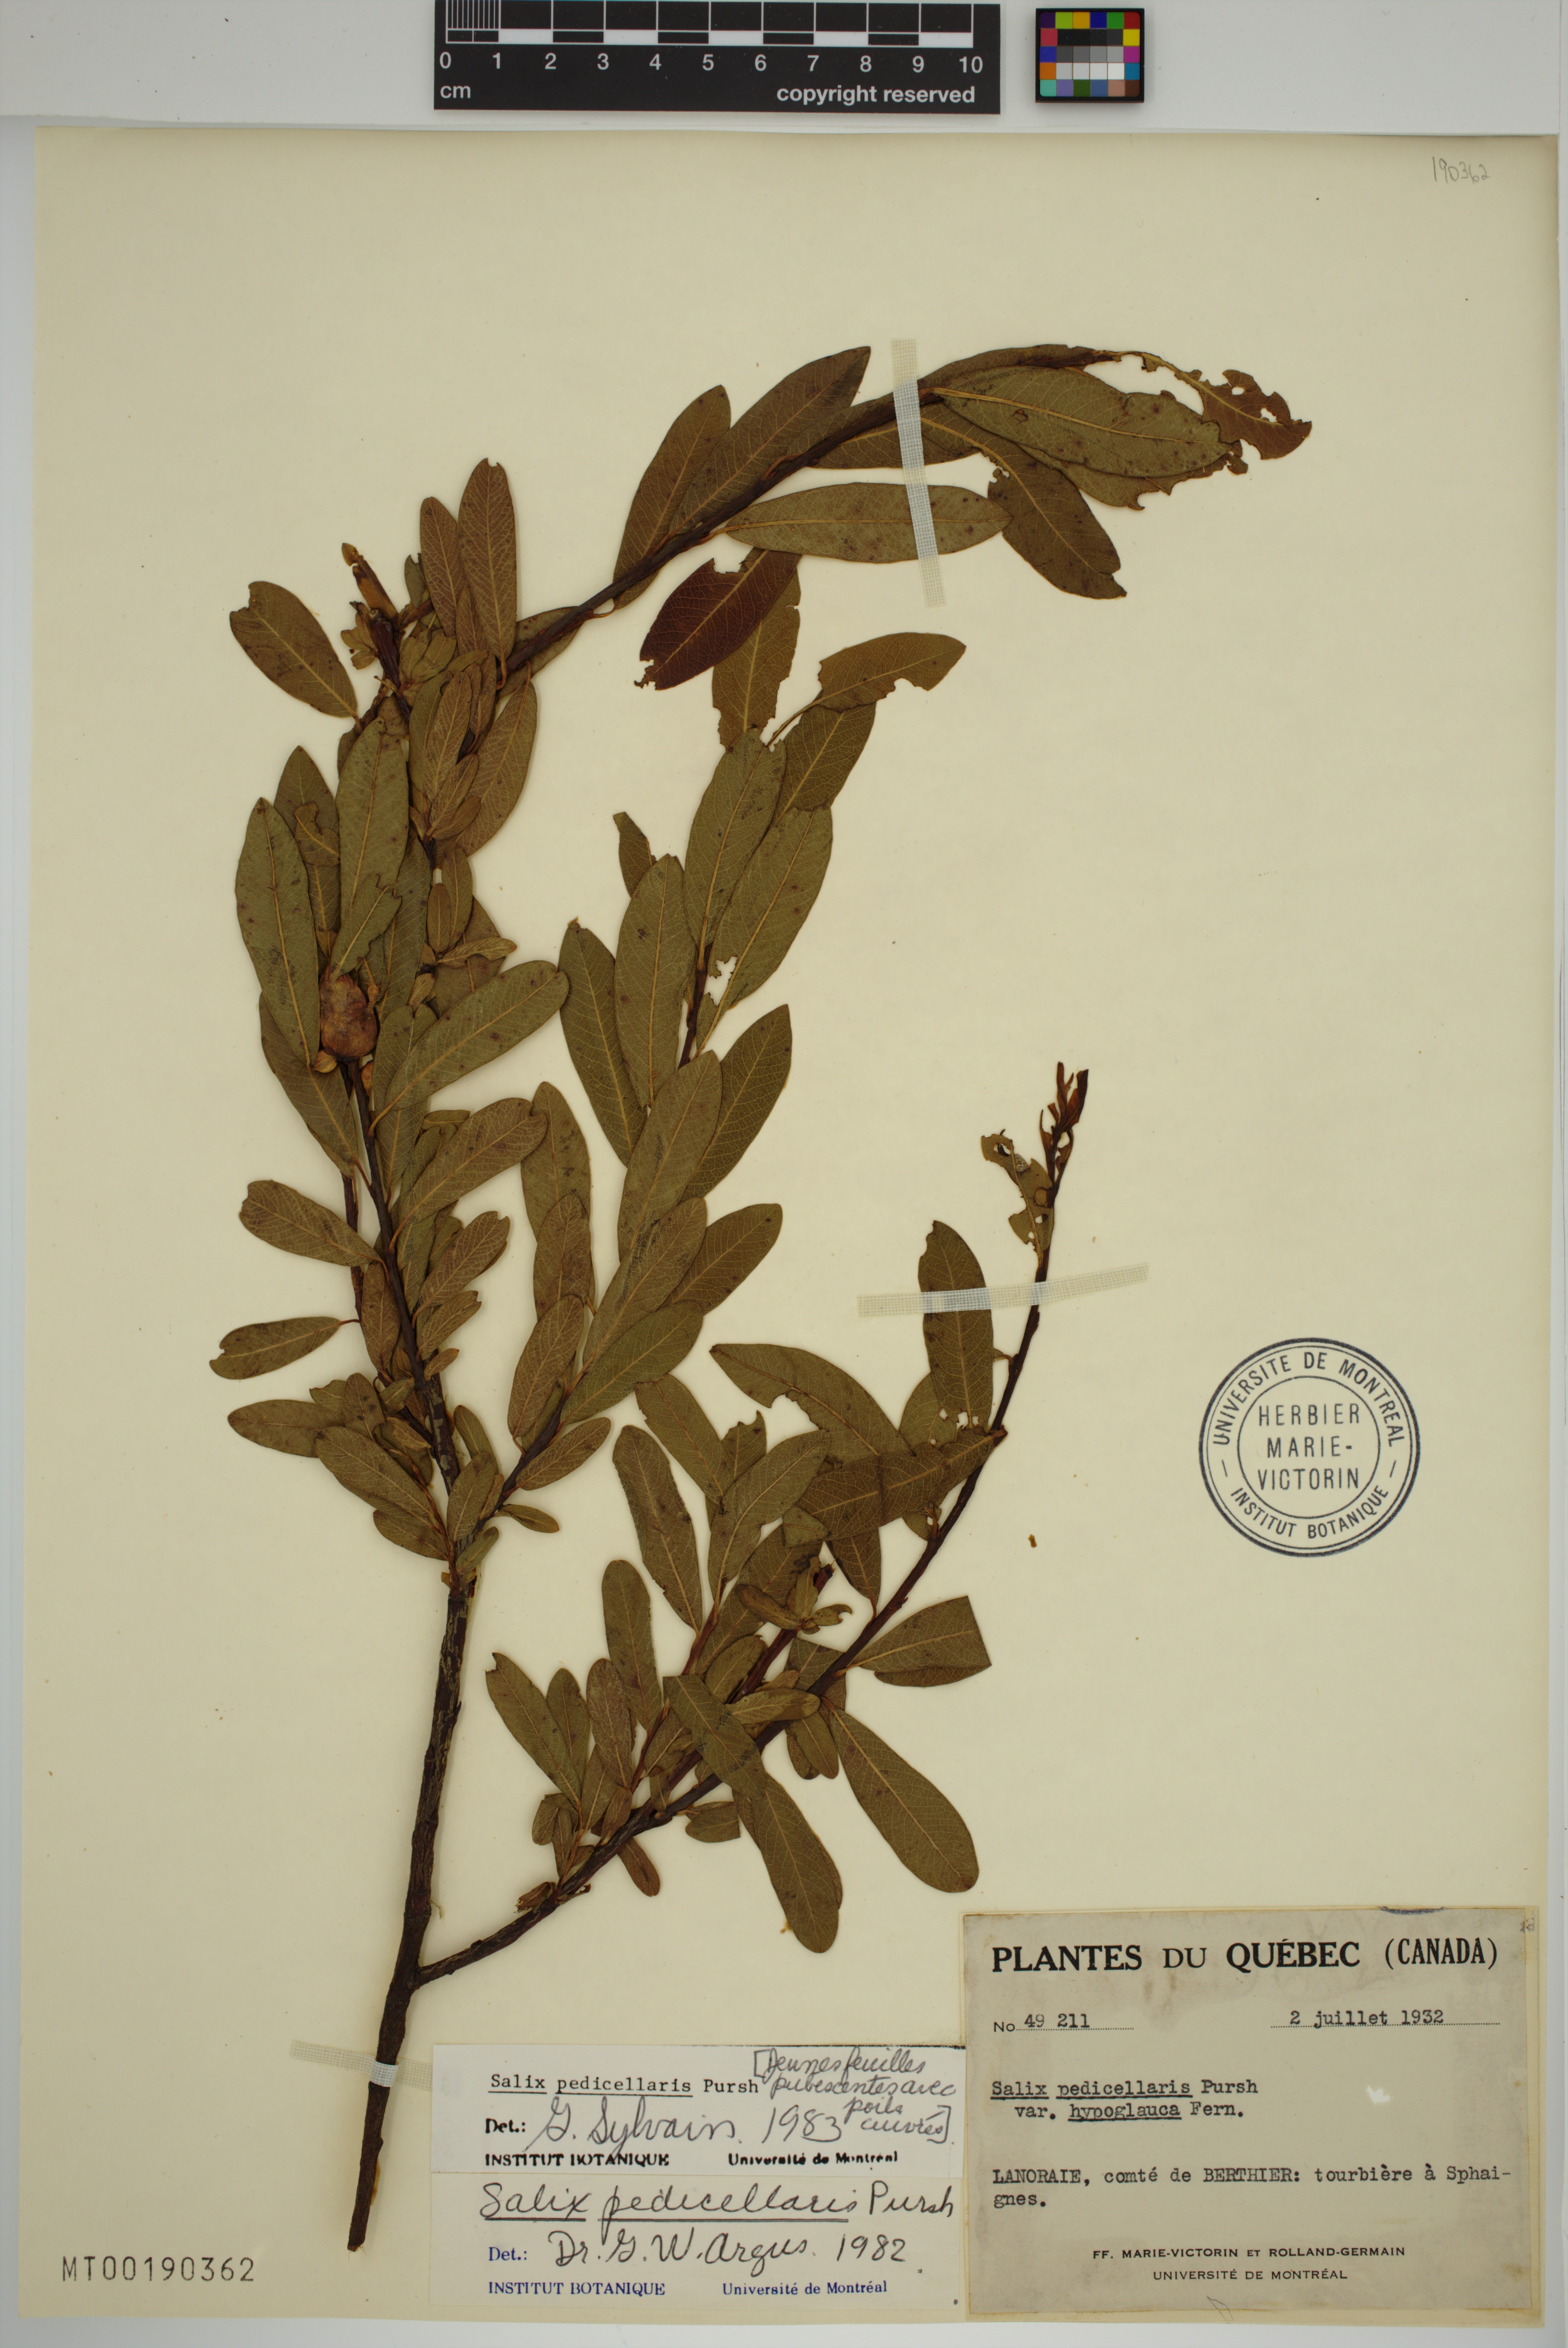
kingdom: Plantae
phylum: Tracheophyta
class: Magnoliopsida
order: Malpighiales
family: Salicaceae
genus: Salix
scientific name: Salix pedicellaris
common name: Bog willow
